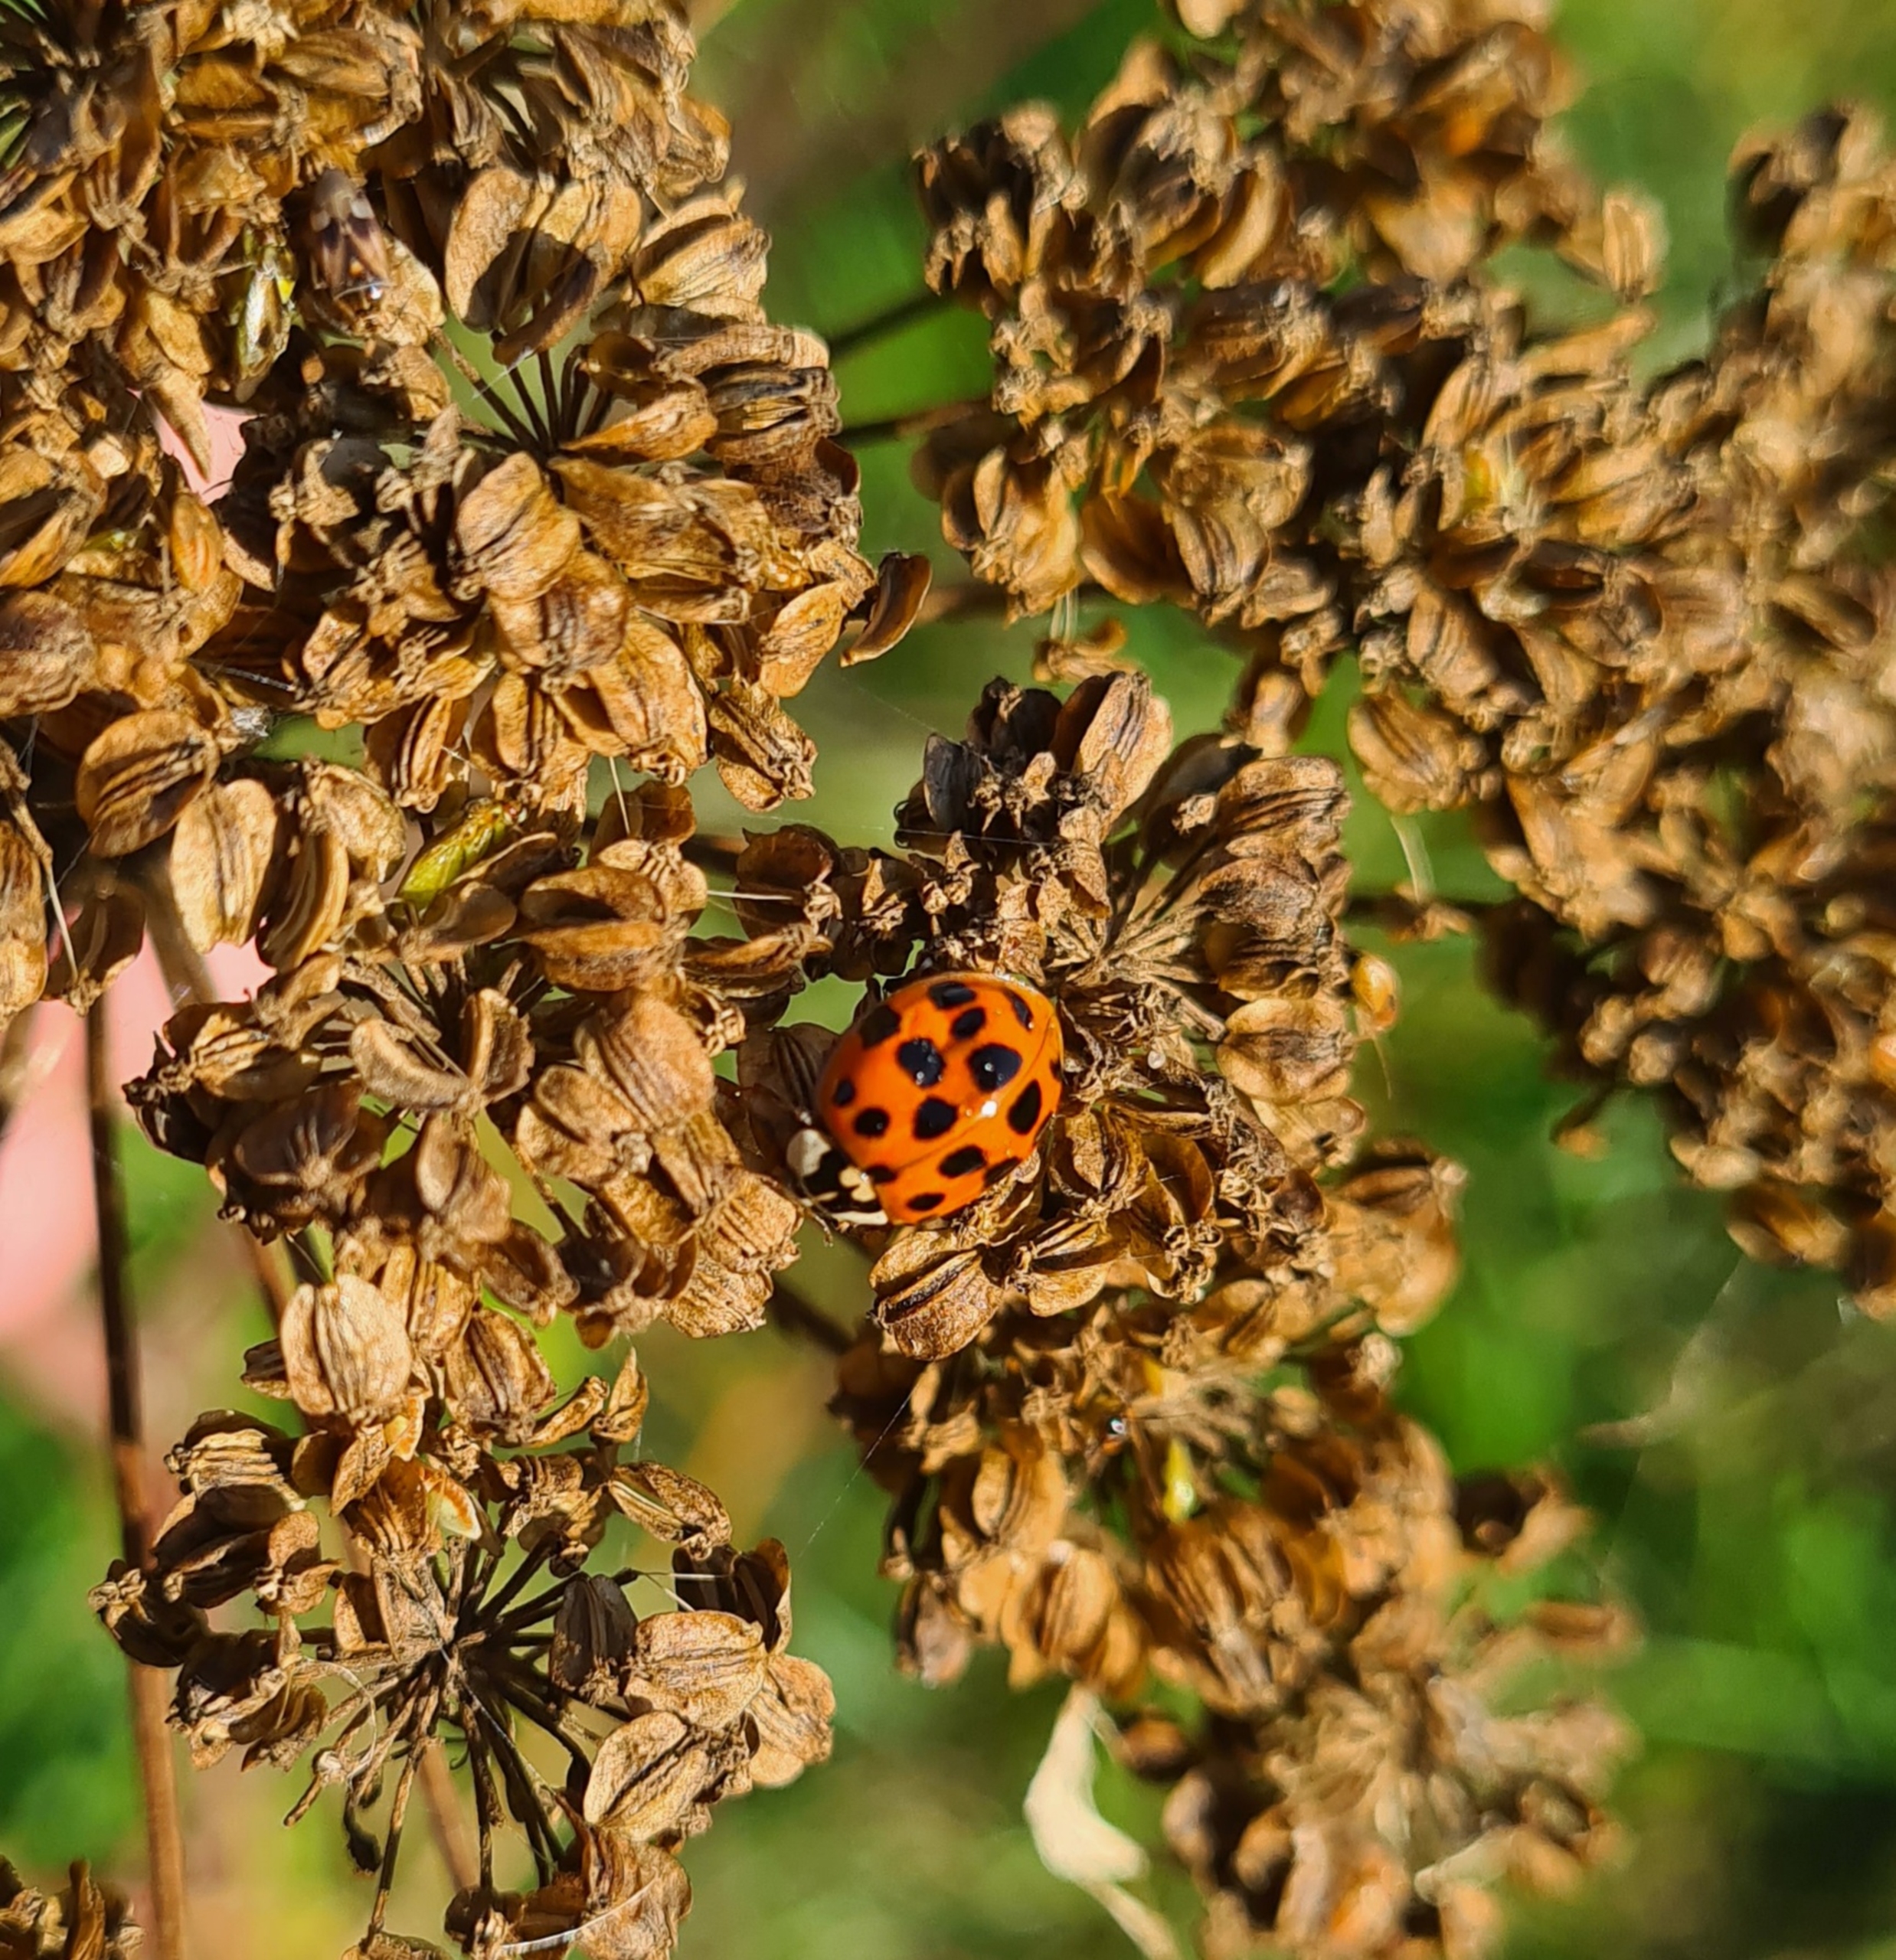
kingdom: Animalia
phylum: Arthropoda
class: Insecta
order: Coleoptera
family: Coccinellidae
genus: Harmonia
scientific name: Harmonia axyridis
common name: Harlekinmariehøne
